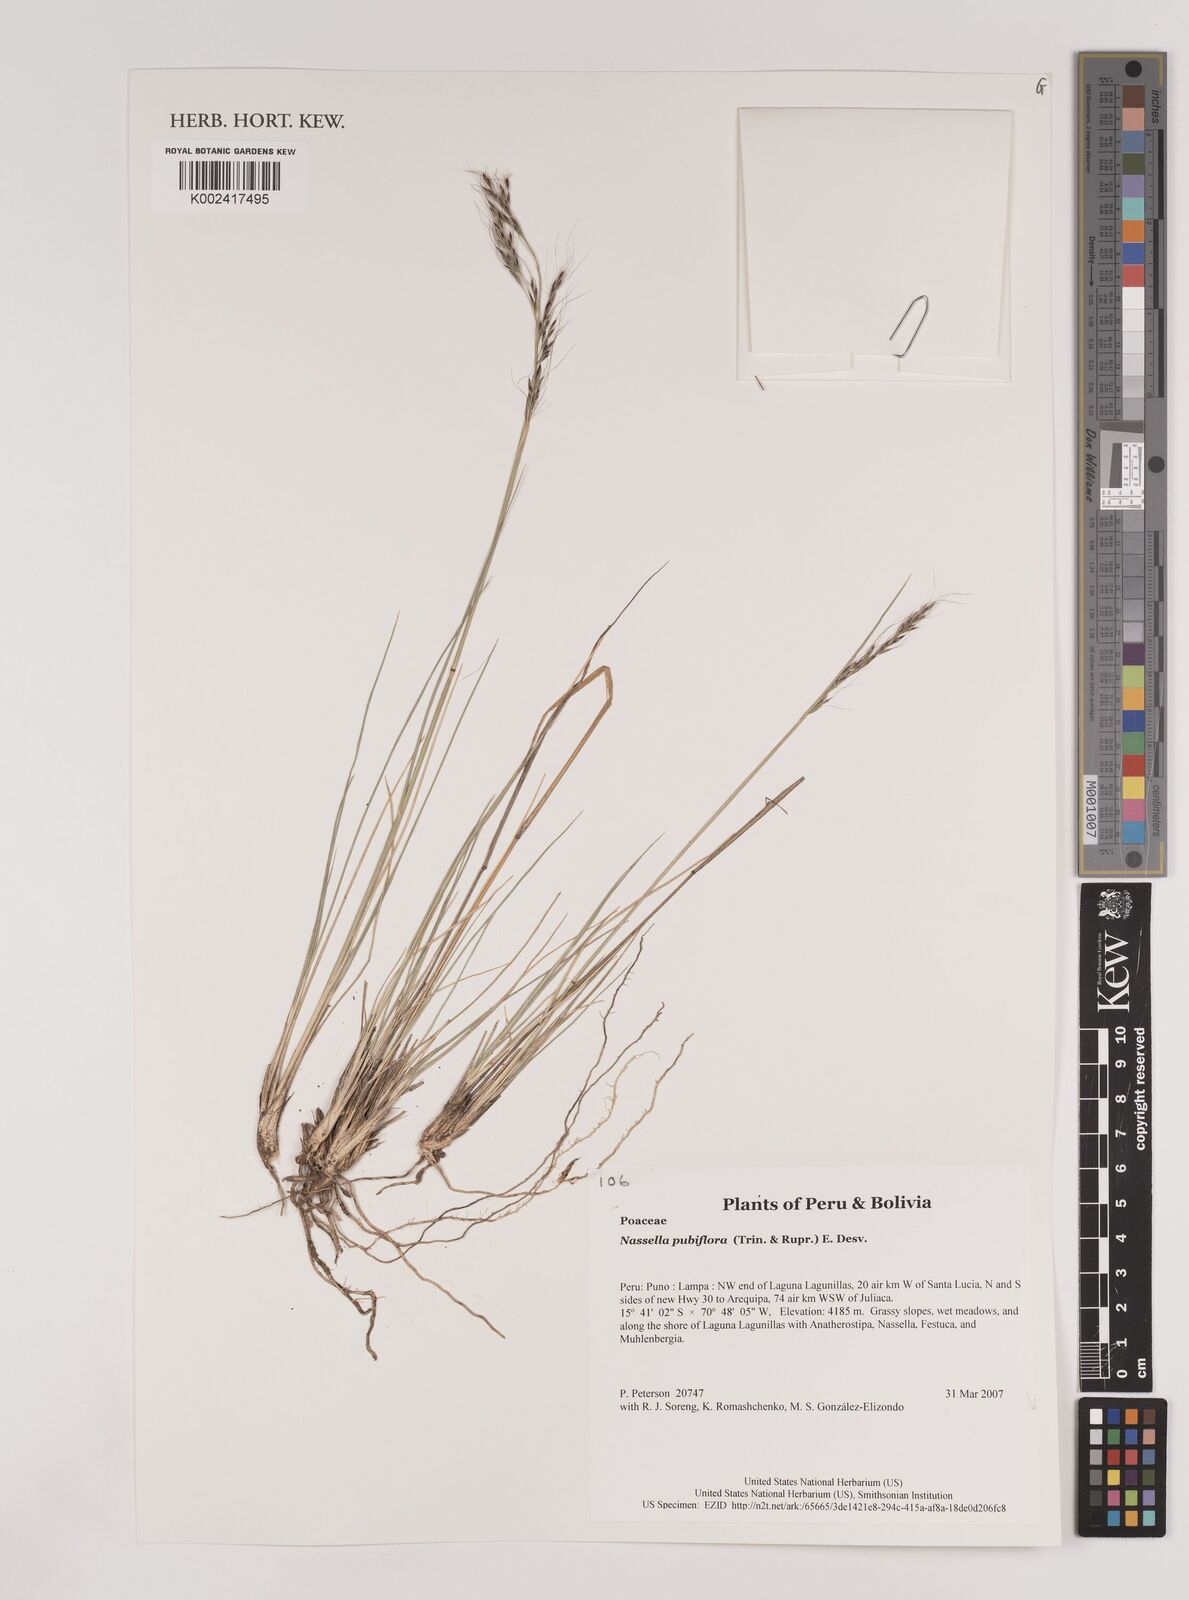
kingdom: Plantae
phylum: Tracheophyta
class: Liliopsida
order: Poales
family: Poaceae
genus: Nassella
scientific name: Nassella pubiflora
